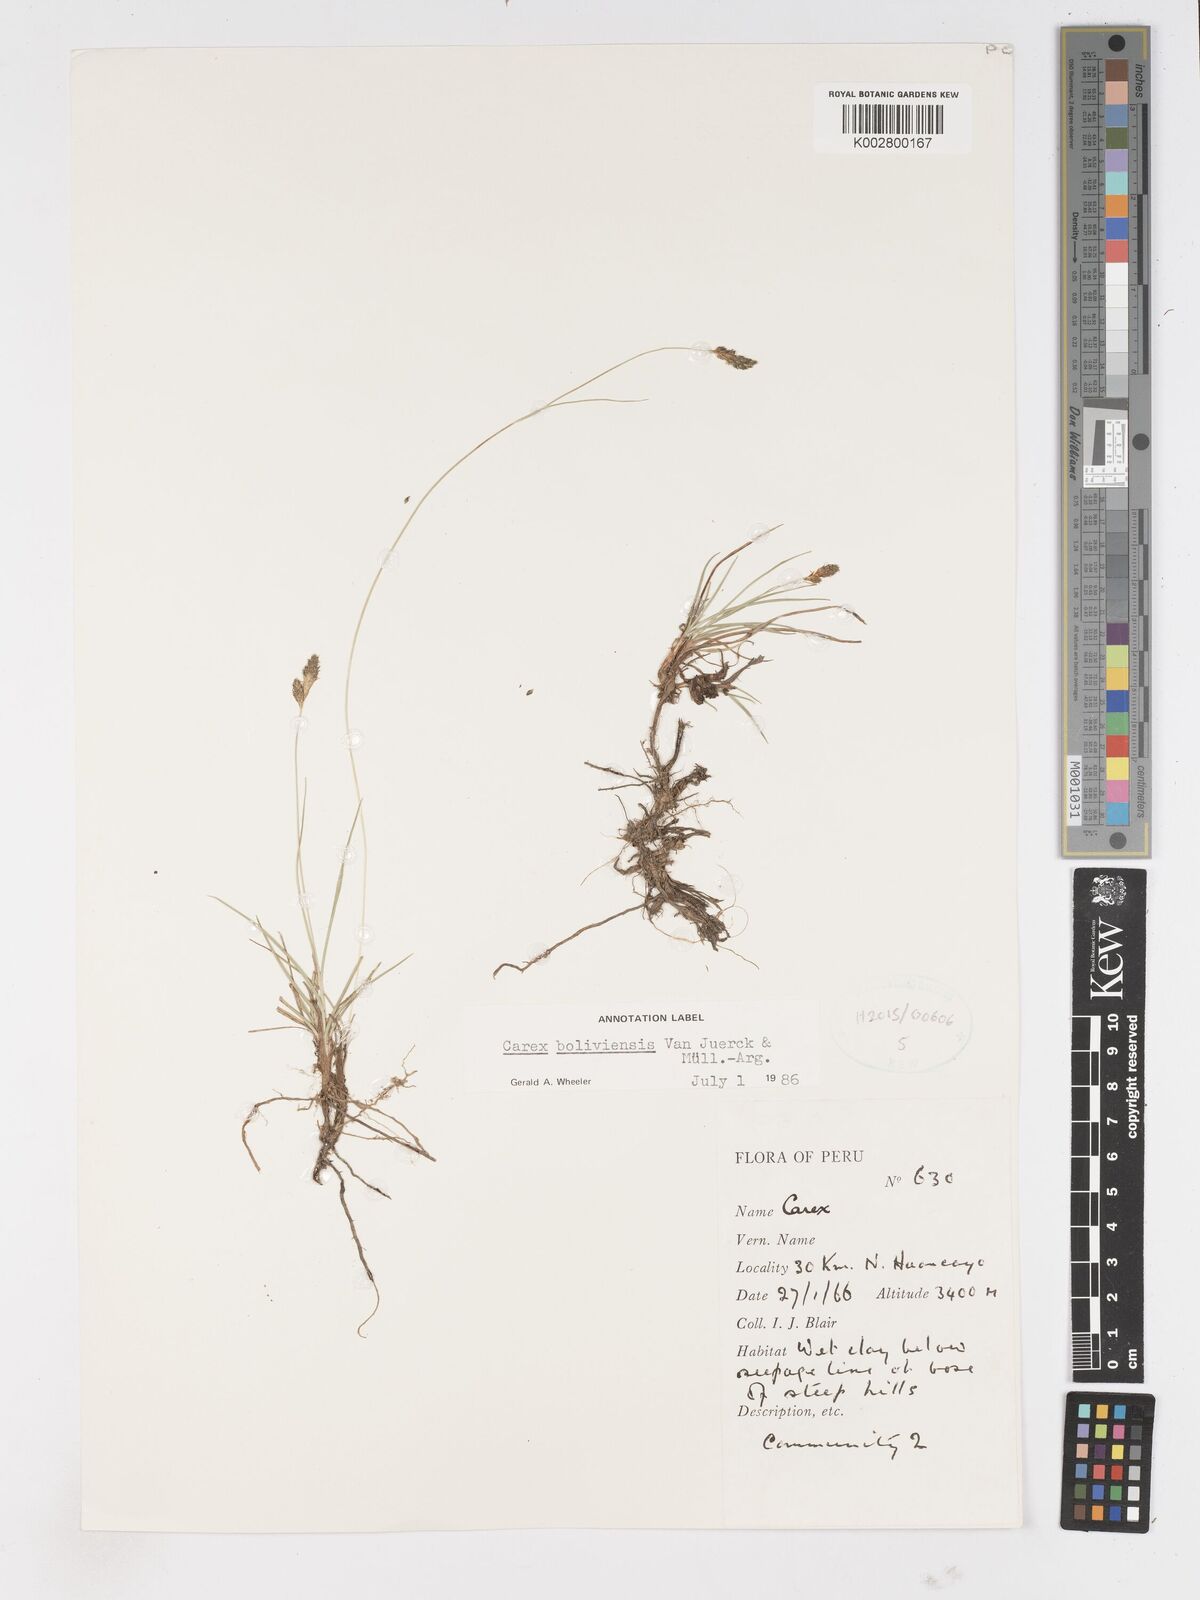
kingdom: Plantae
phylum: Tracheophyta
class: Liliopsida
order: Poales
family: Cyperaceae
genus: Carex
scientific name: Carex boliviensis
